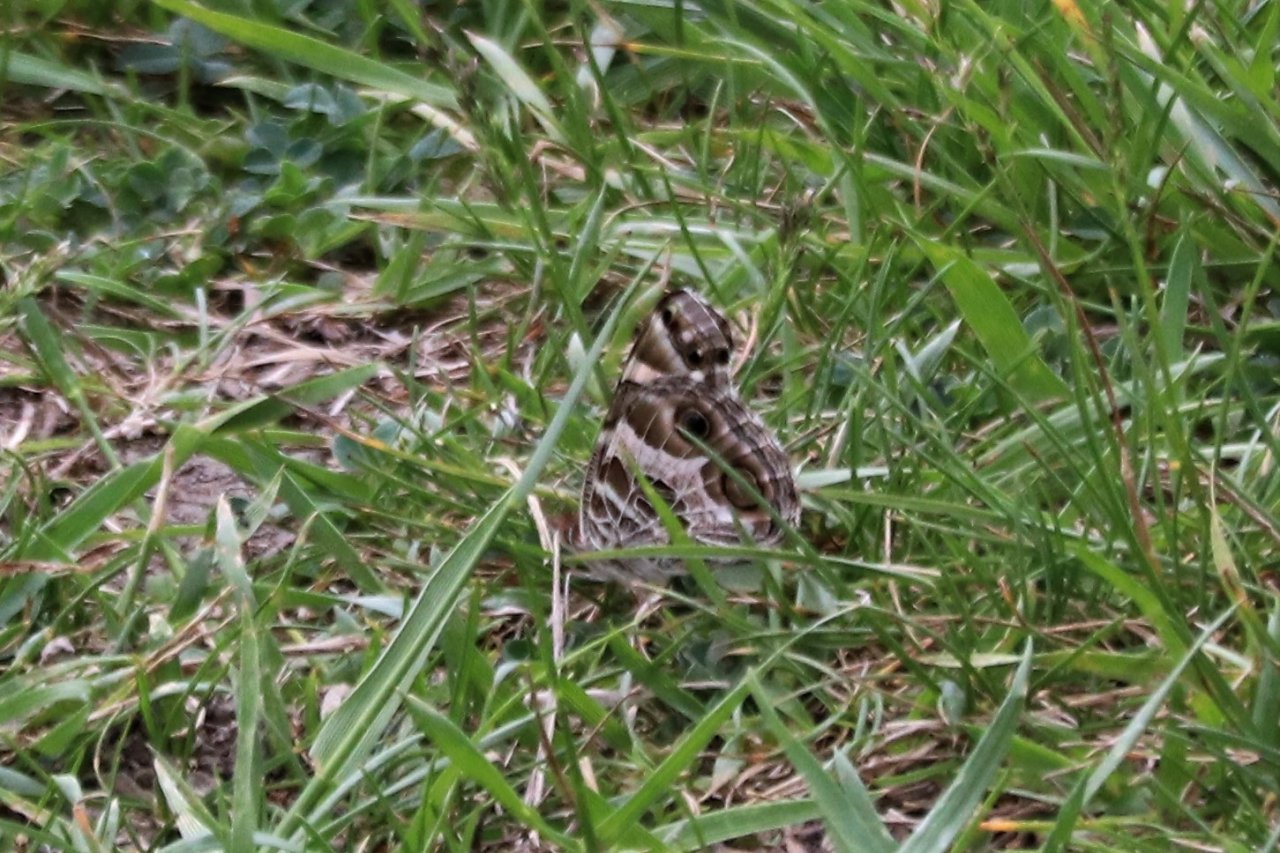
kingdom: Animalia
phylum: Arthropoda
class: Insecta
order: Lepidoptera
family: Nymphalidae
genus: Vanessa
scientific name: Vanessa virginiensis
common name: American Lady
